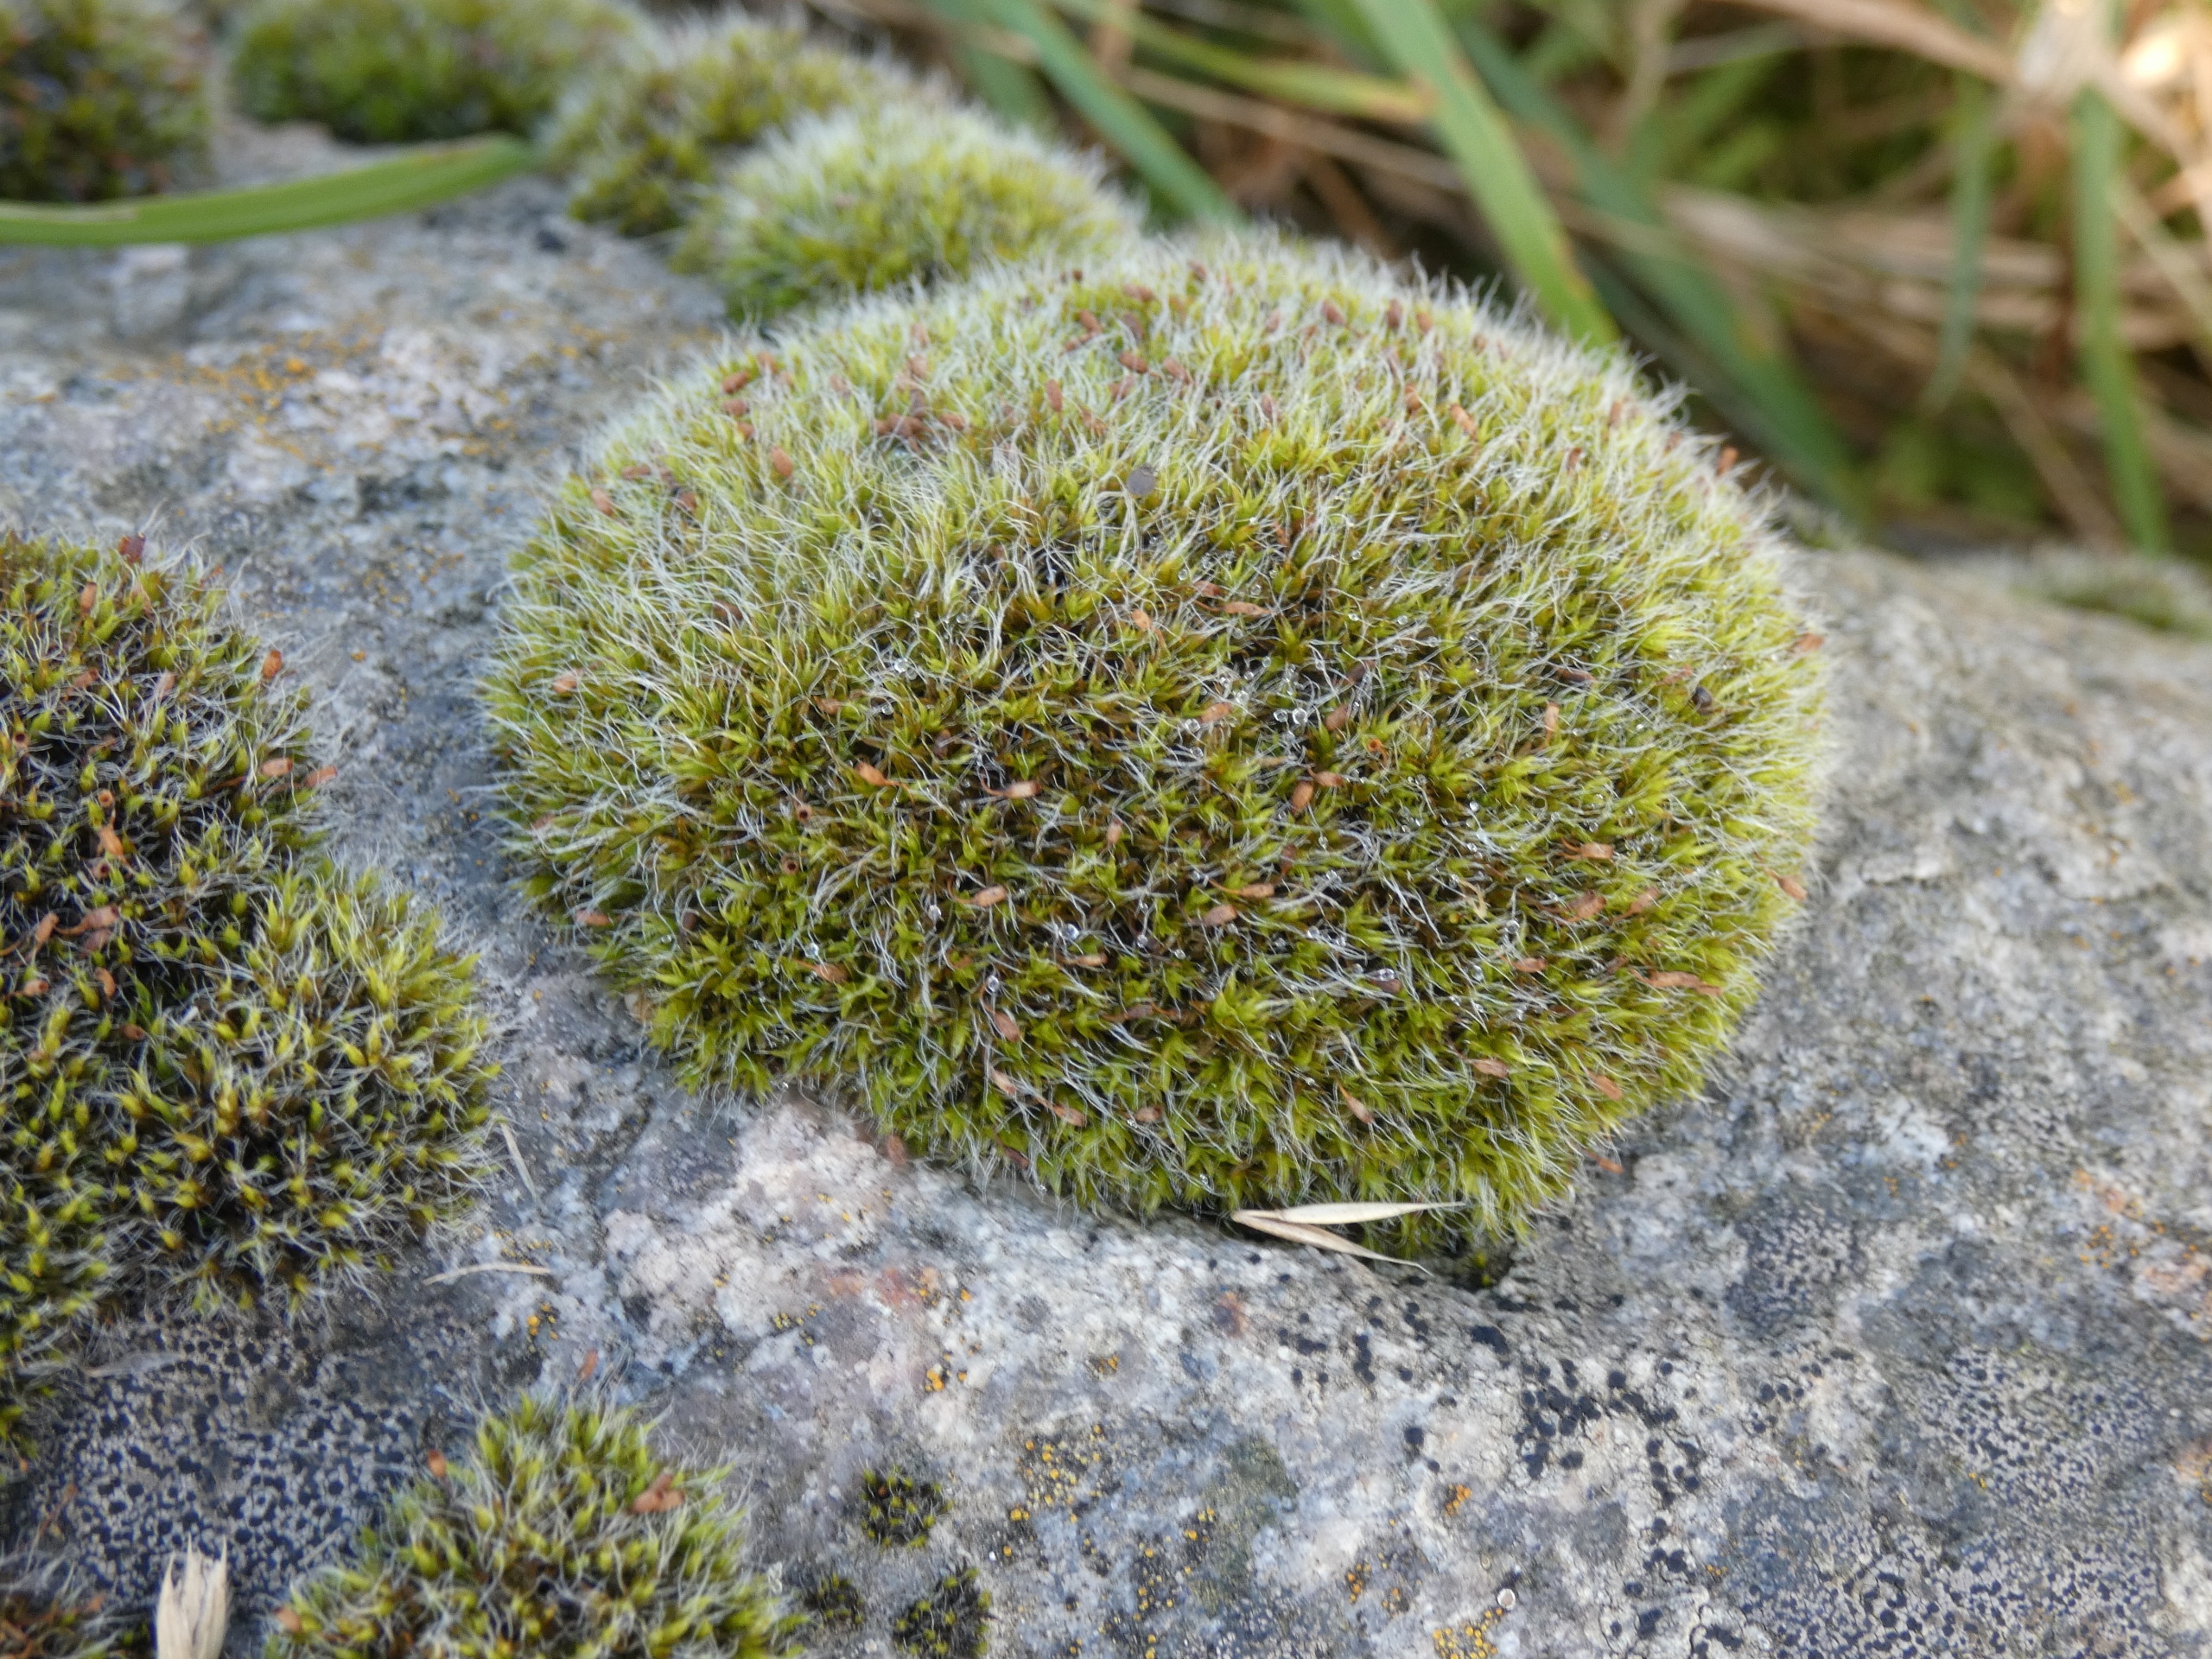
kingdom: Plantae
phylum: Bryophyta
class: Bryopsida
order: Grimmiales
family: Grimmiaceae
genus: Grimmia
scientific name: Grimmia
